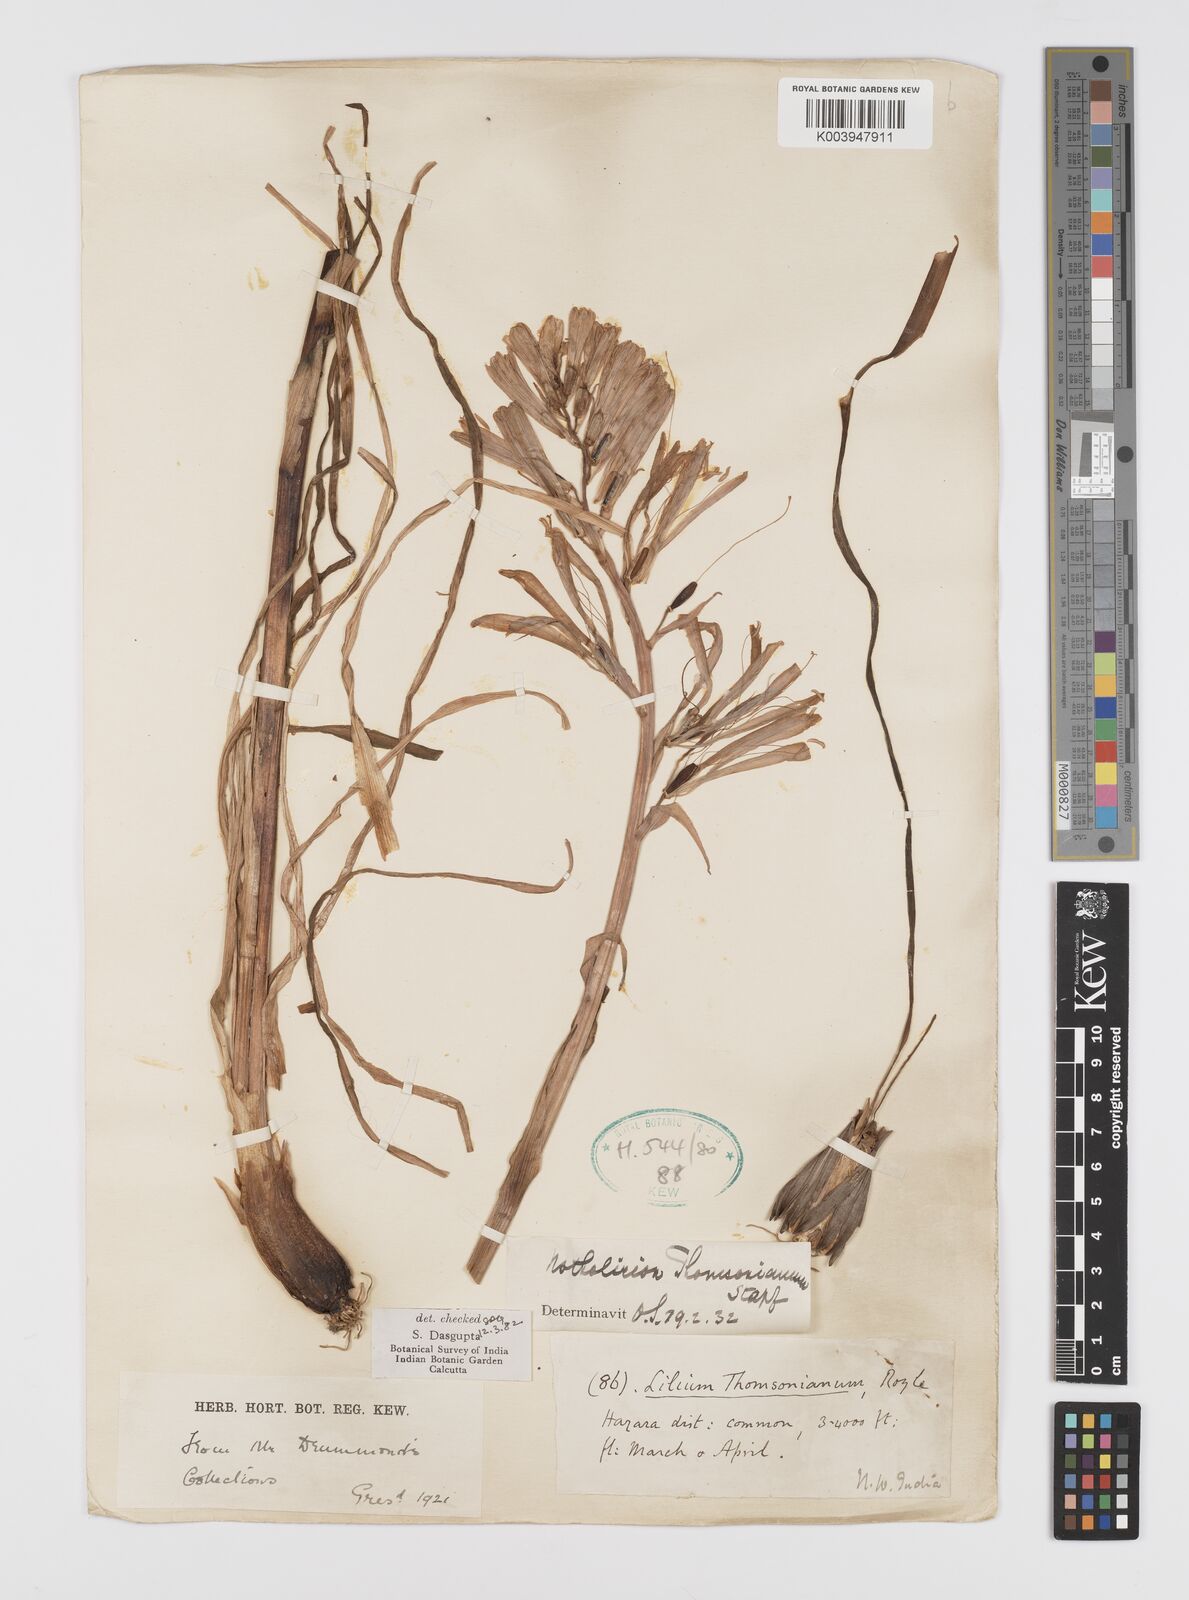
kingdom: Plantae
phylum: Tracheophyta
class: Liliopsida
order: Liliales
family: Liliaceae
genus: Notholirion
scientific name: Notholirion thomsonianum
